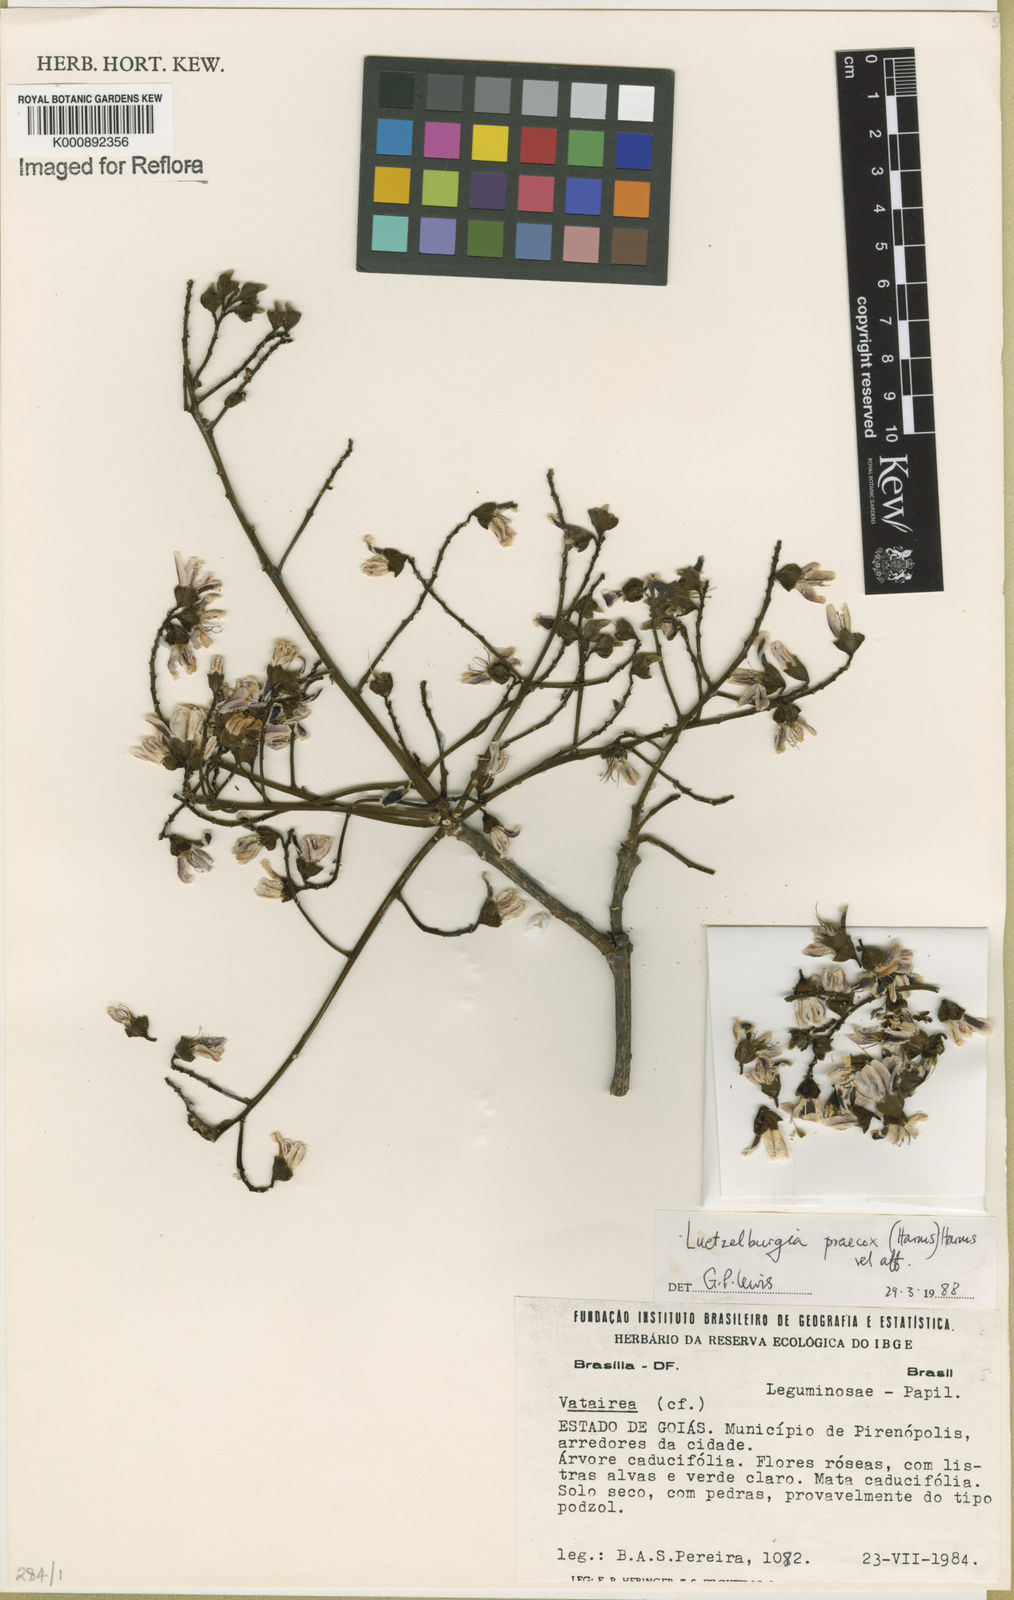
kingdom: Plantae
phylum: Tracheophyta
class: Magnoliopsida
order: Fabales
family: Fabaceae
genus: Luetzelburgia
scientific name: Luetzelburgia praecox
